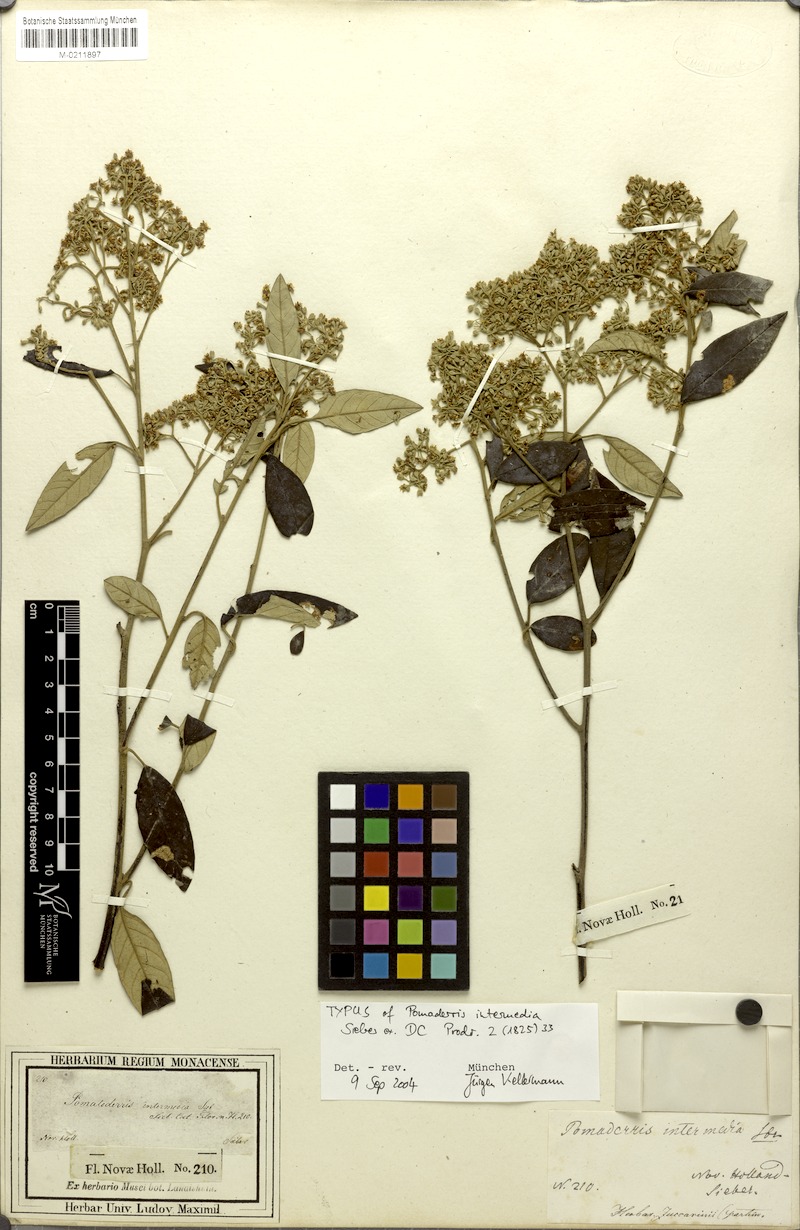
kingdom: Plantae
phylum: Tracheophyta
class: Magnoliopsida
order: Rosales
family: Rhamnaceae
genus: Pomaderris
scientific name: Pomaderris intermedia
